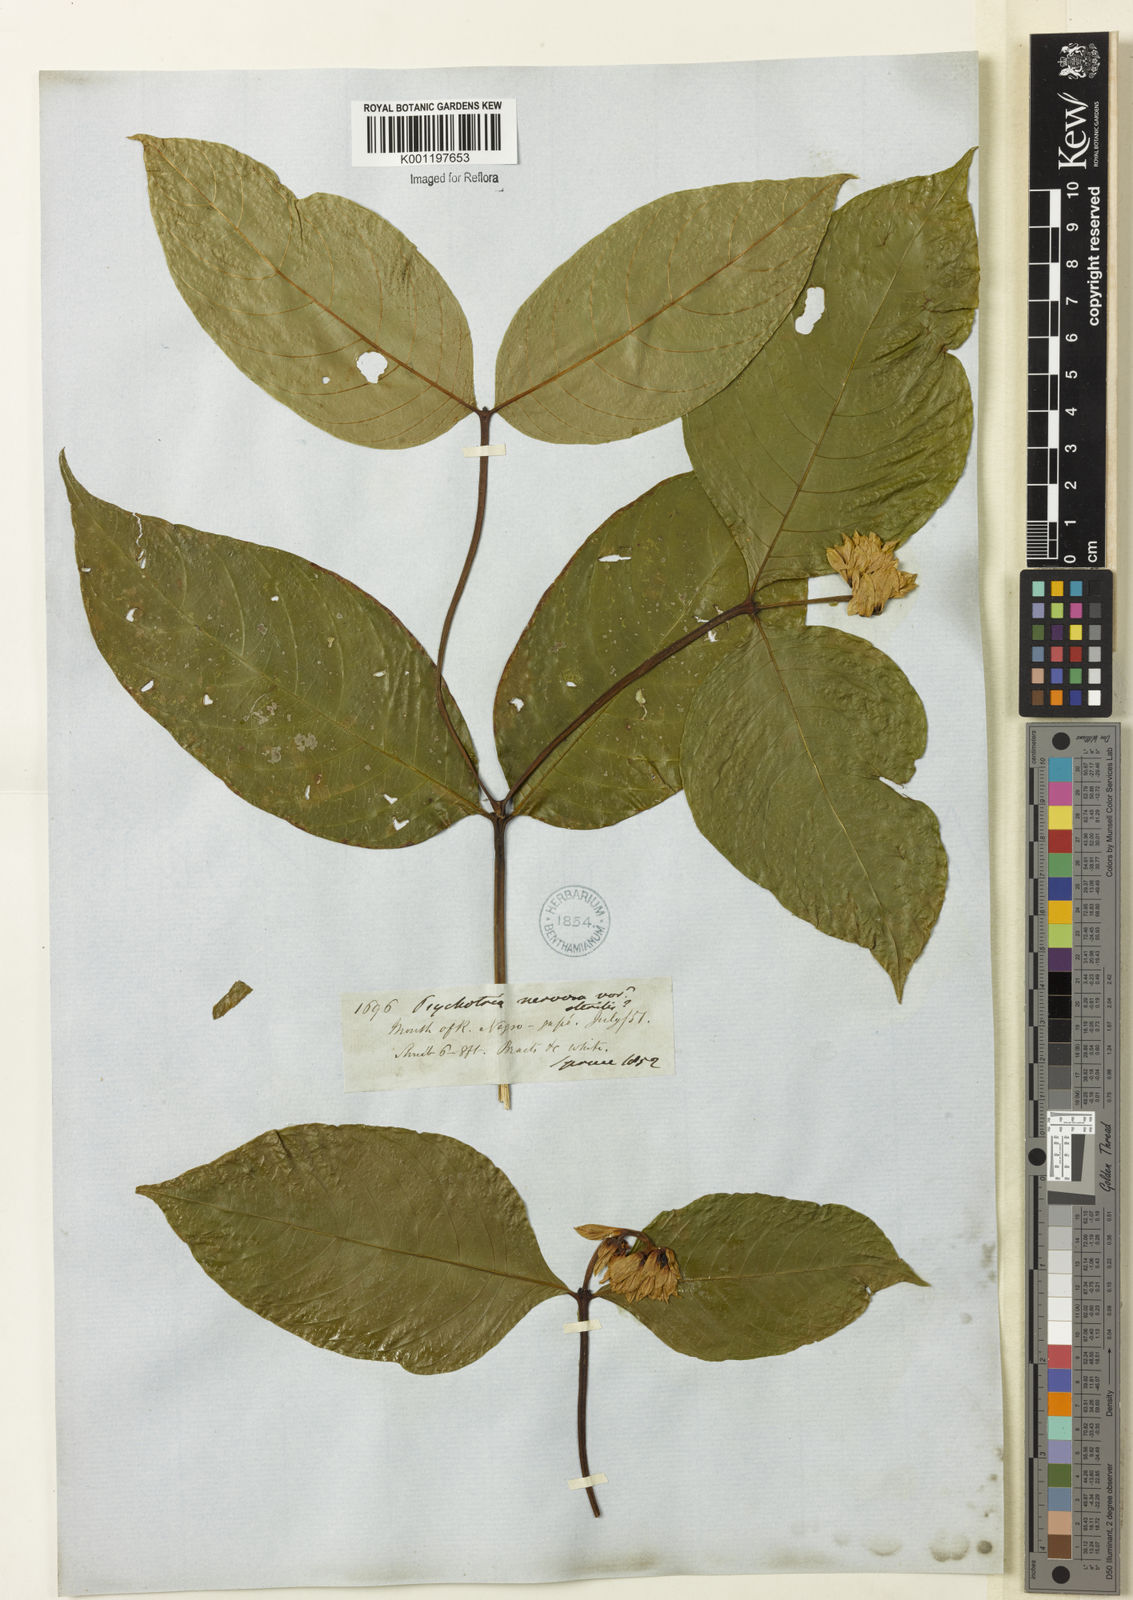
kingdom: Plantae
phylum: Tracheophyta
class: Magnoliopsida
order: Gentianales
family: Rubiaceae
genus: Palicourea
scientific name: Palicourea justiciifolia
